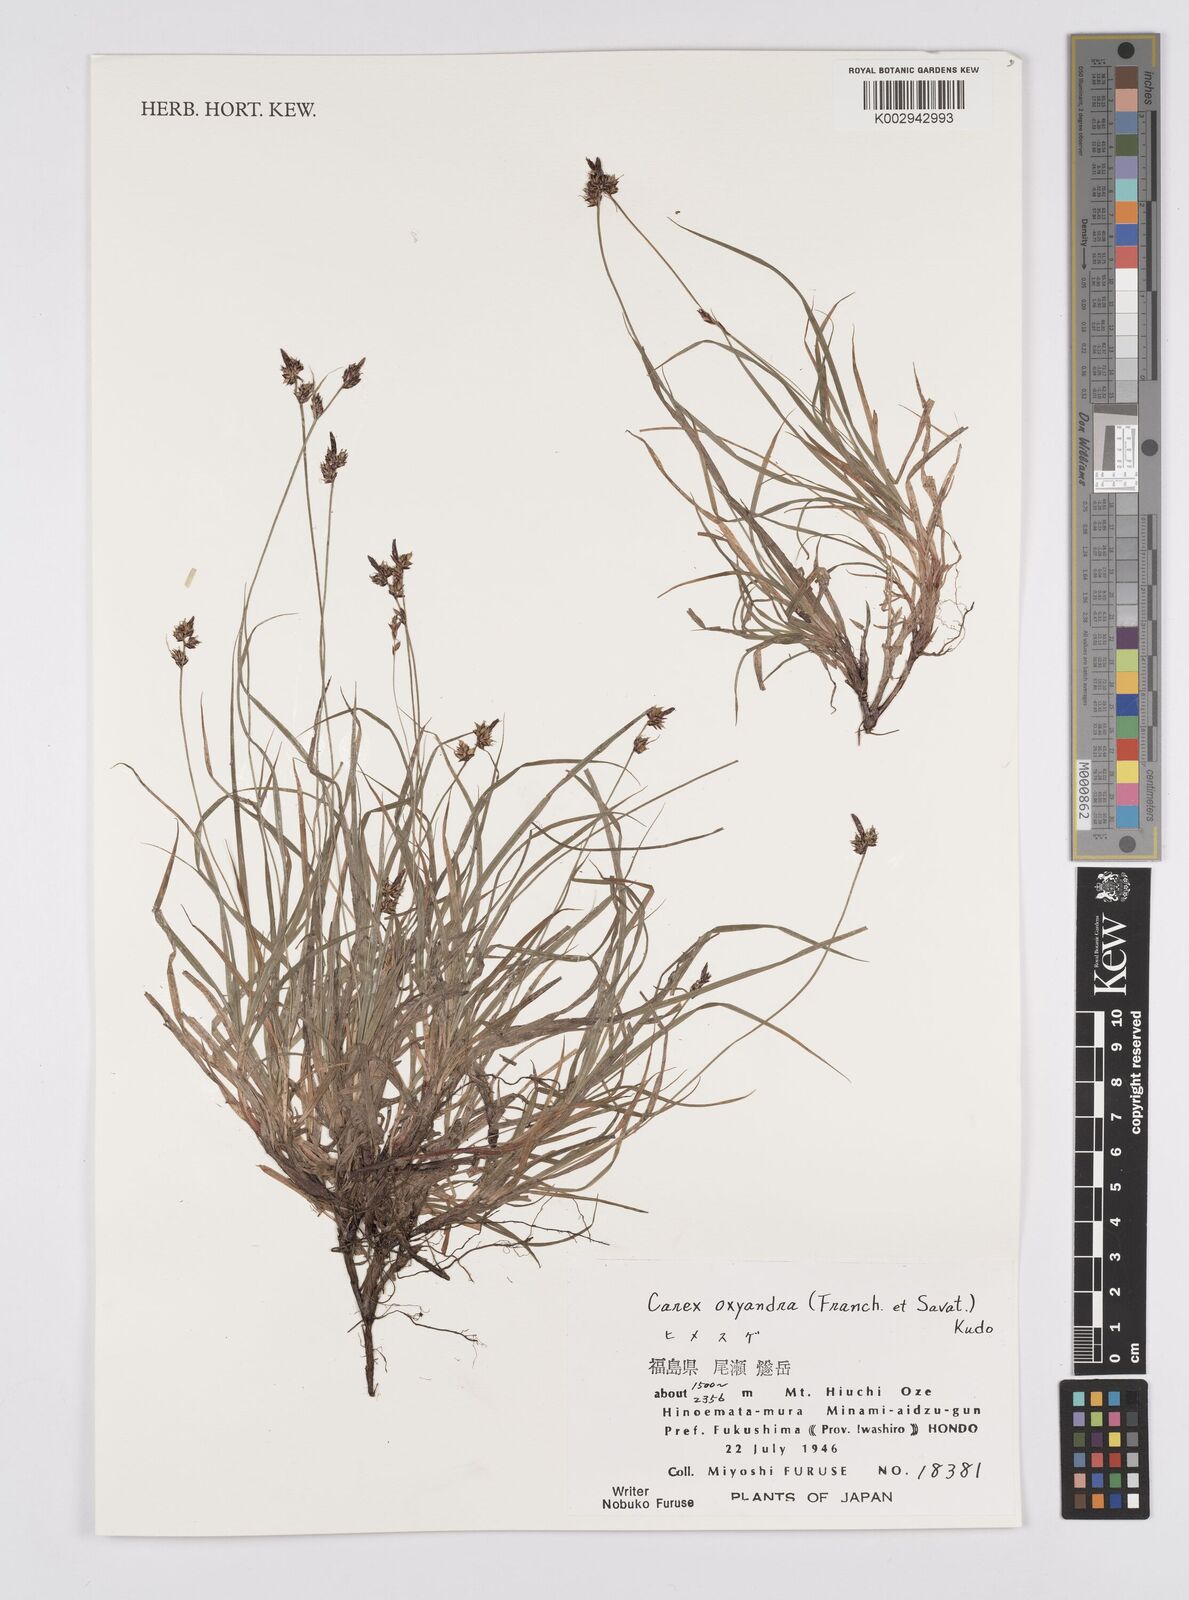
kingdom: Plantae
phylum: Tracheophyta
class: Liliopsida
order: Poales
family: Cyperaceae
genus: Carex
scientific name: Carex oxyandra
